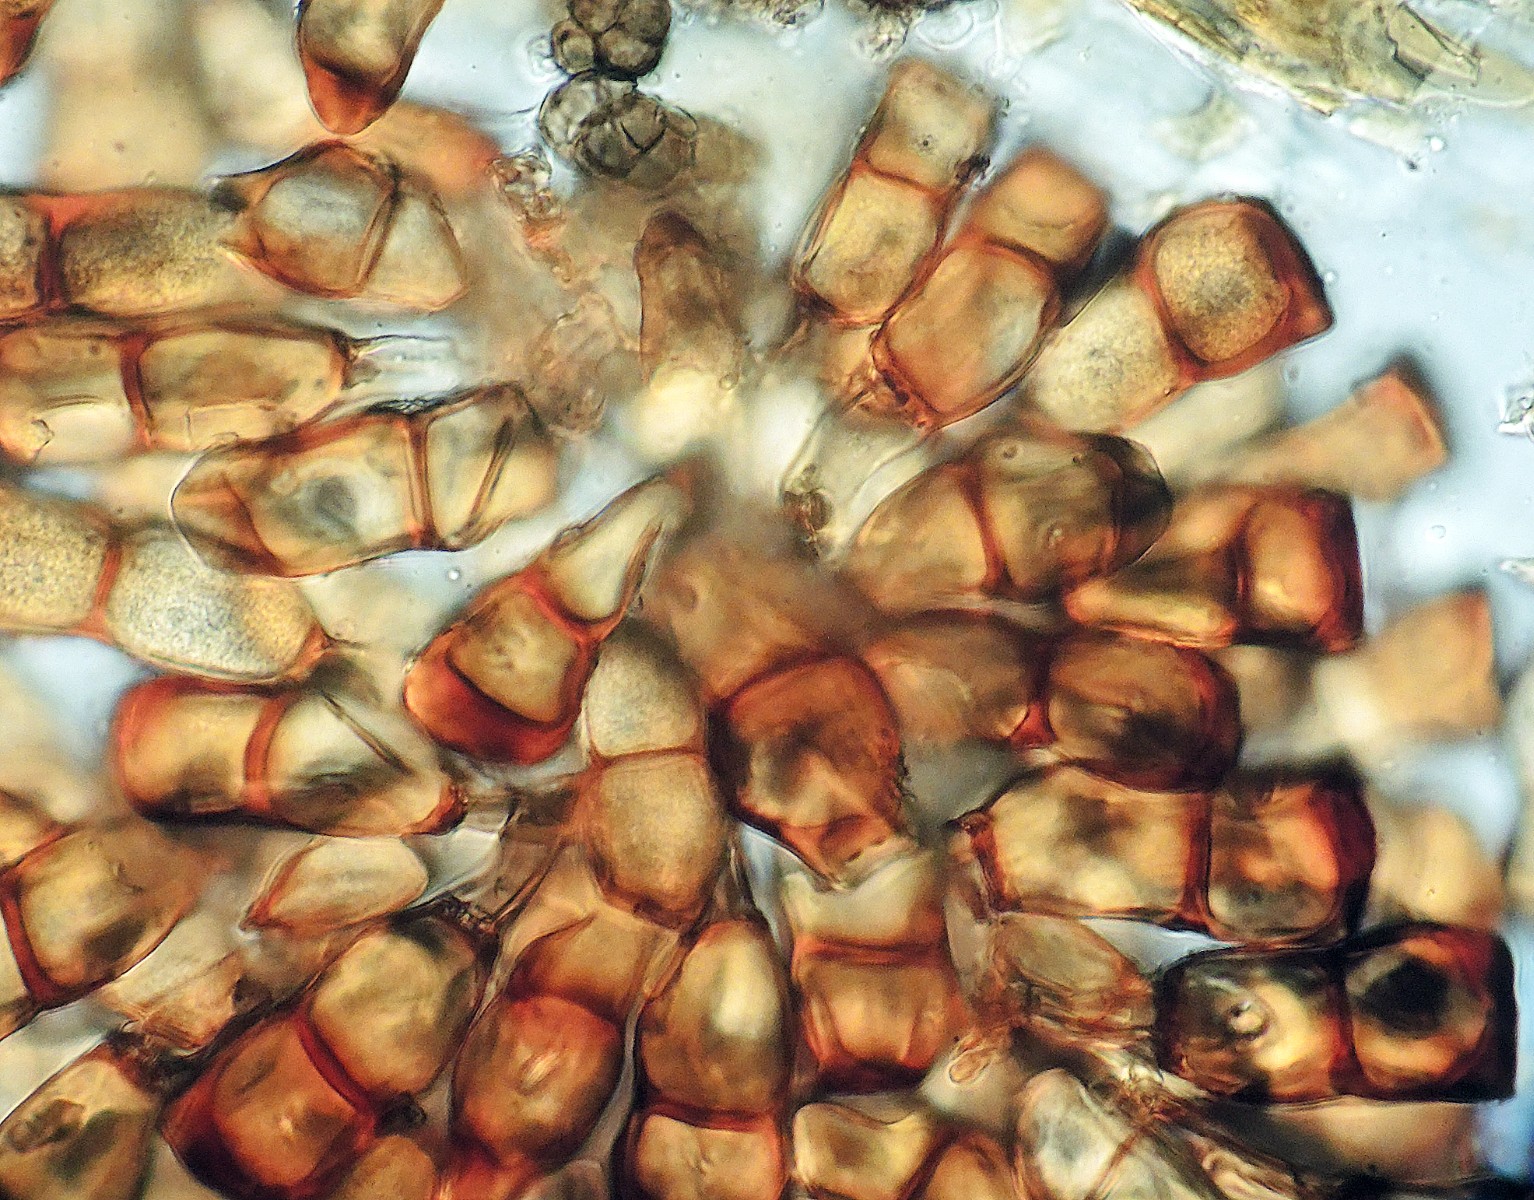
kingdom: Fungi
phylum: Basidiomycota
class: Pucciniomycetes
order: Pucciniales
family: Pucciniaceae
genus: Puccinia
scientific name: Puccinia punctata
